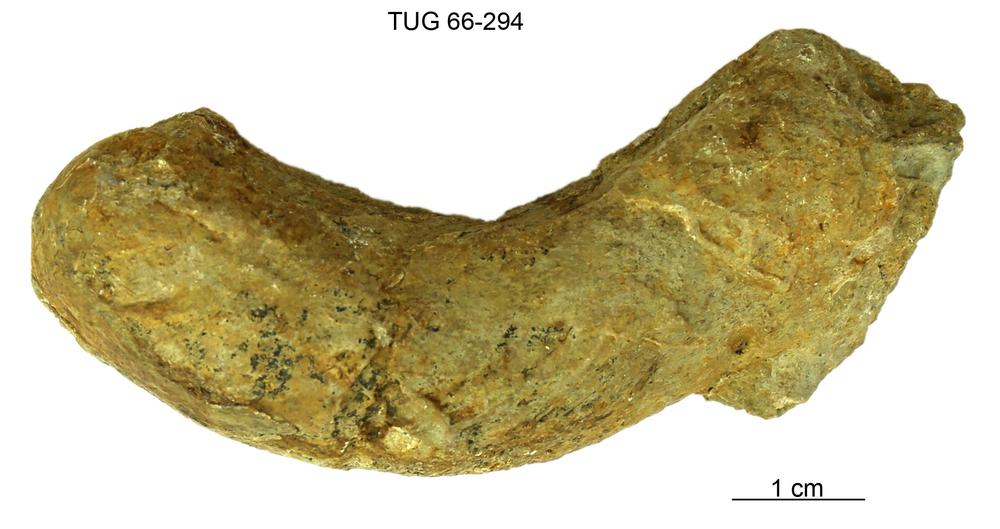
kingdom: Animalia
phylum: Mollusca
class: Cephalopoda
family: Trocholitidae
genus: Discoceras
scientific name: Discoceras
